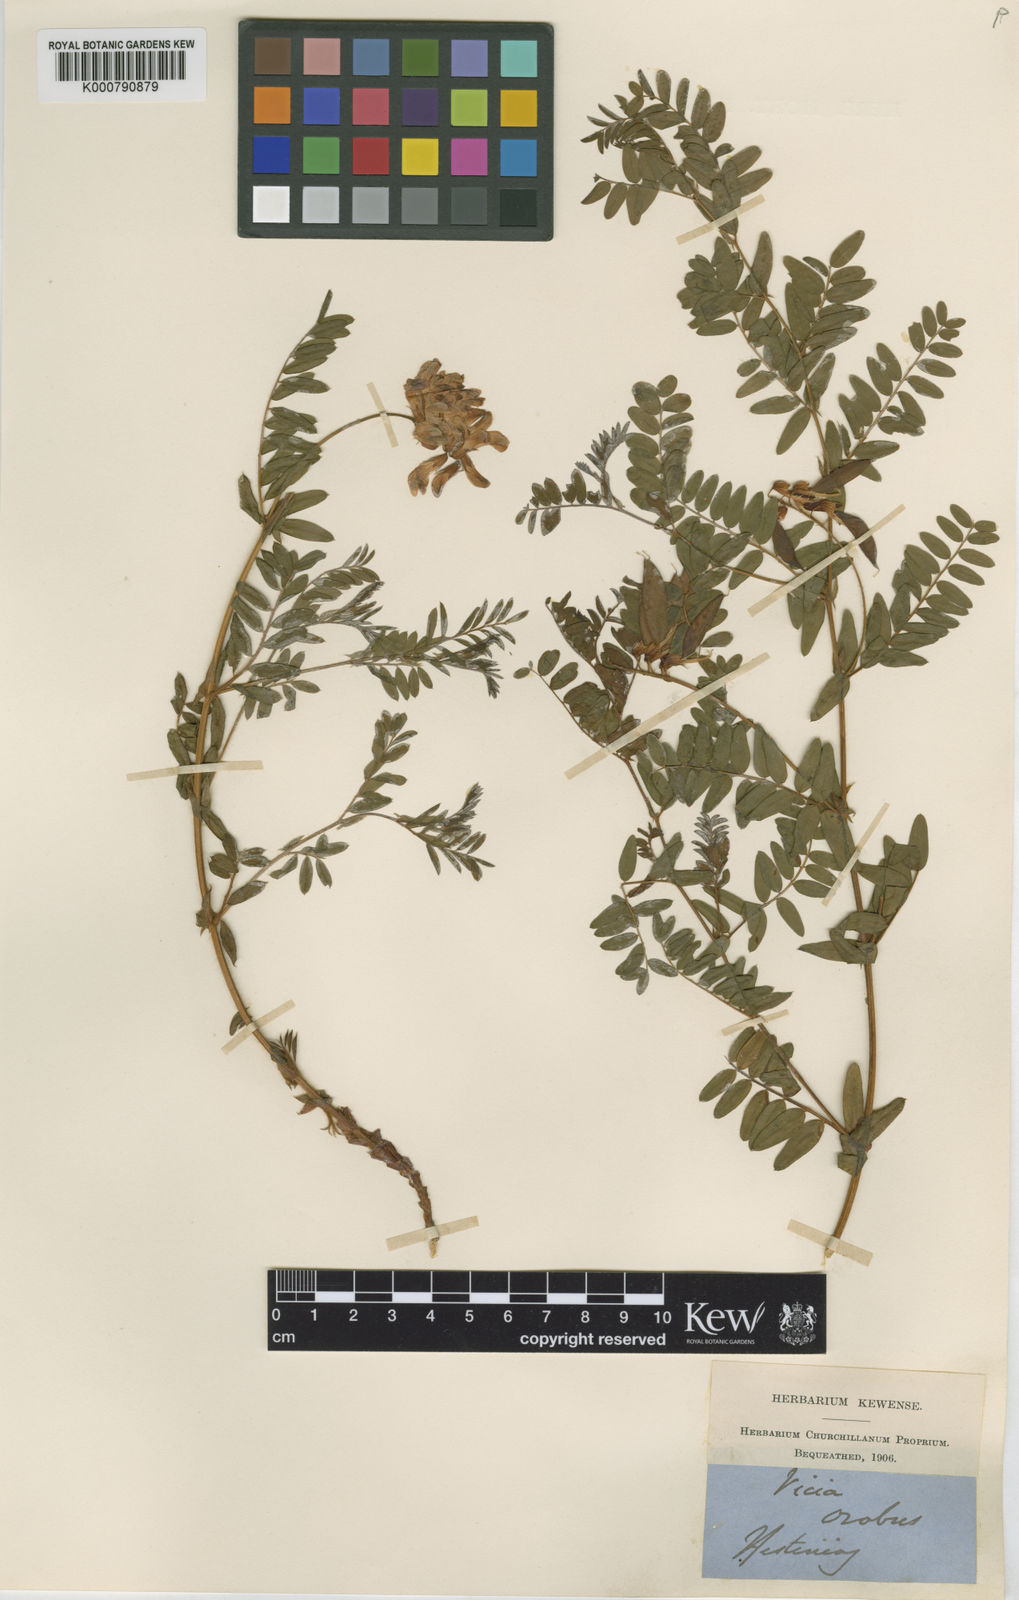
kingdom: Plantae
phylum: Tracheophyta
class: Magnoliopsida
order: Fabales
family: Fabaceae
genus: Vicia
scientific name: Vicia orobus
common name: Wood bitter-vetch
